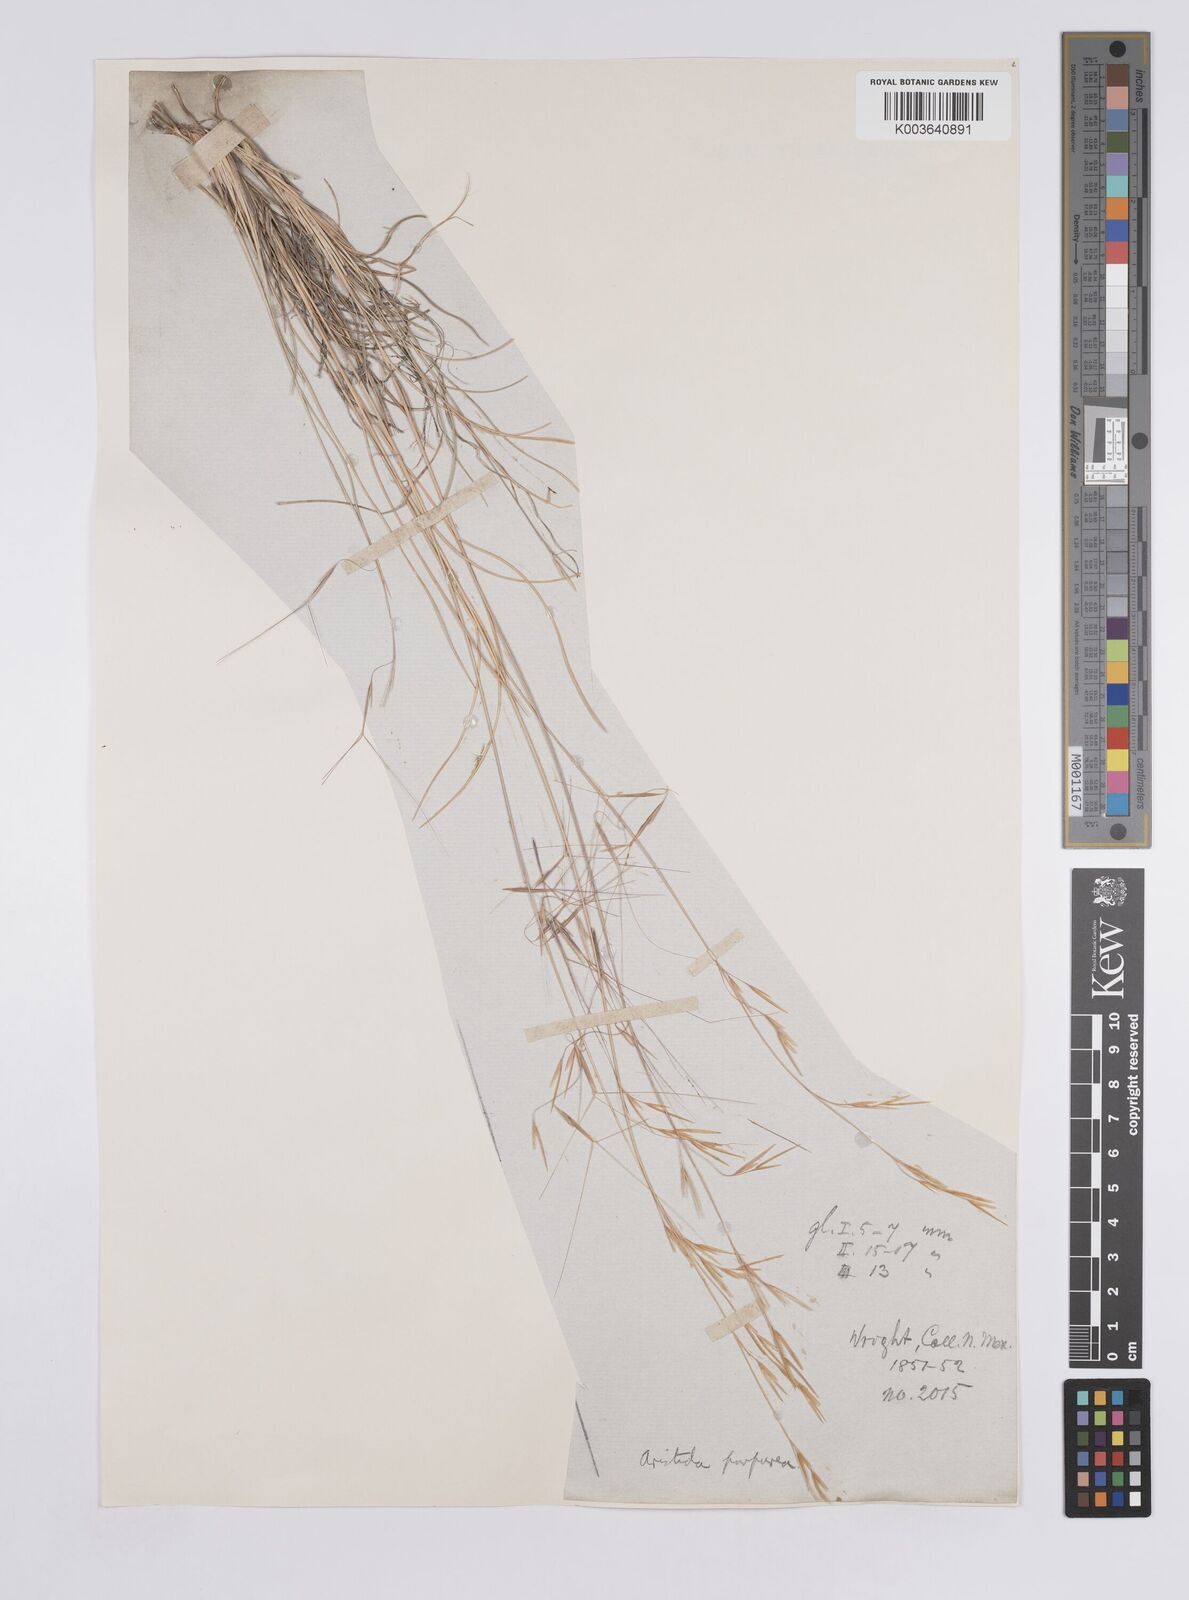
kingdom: Plantae
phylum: Tracheophyta
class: Liliopsida
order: Poales
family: Poaceae
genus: Aristida
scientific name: Aristida purpurea
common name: Purple threeawn
